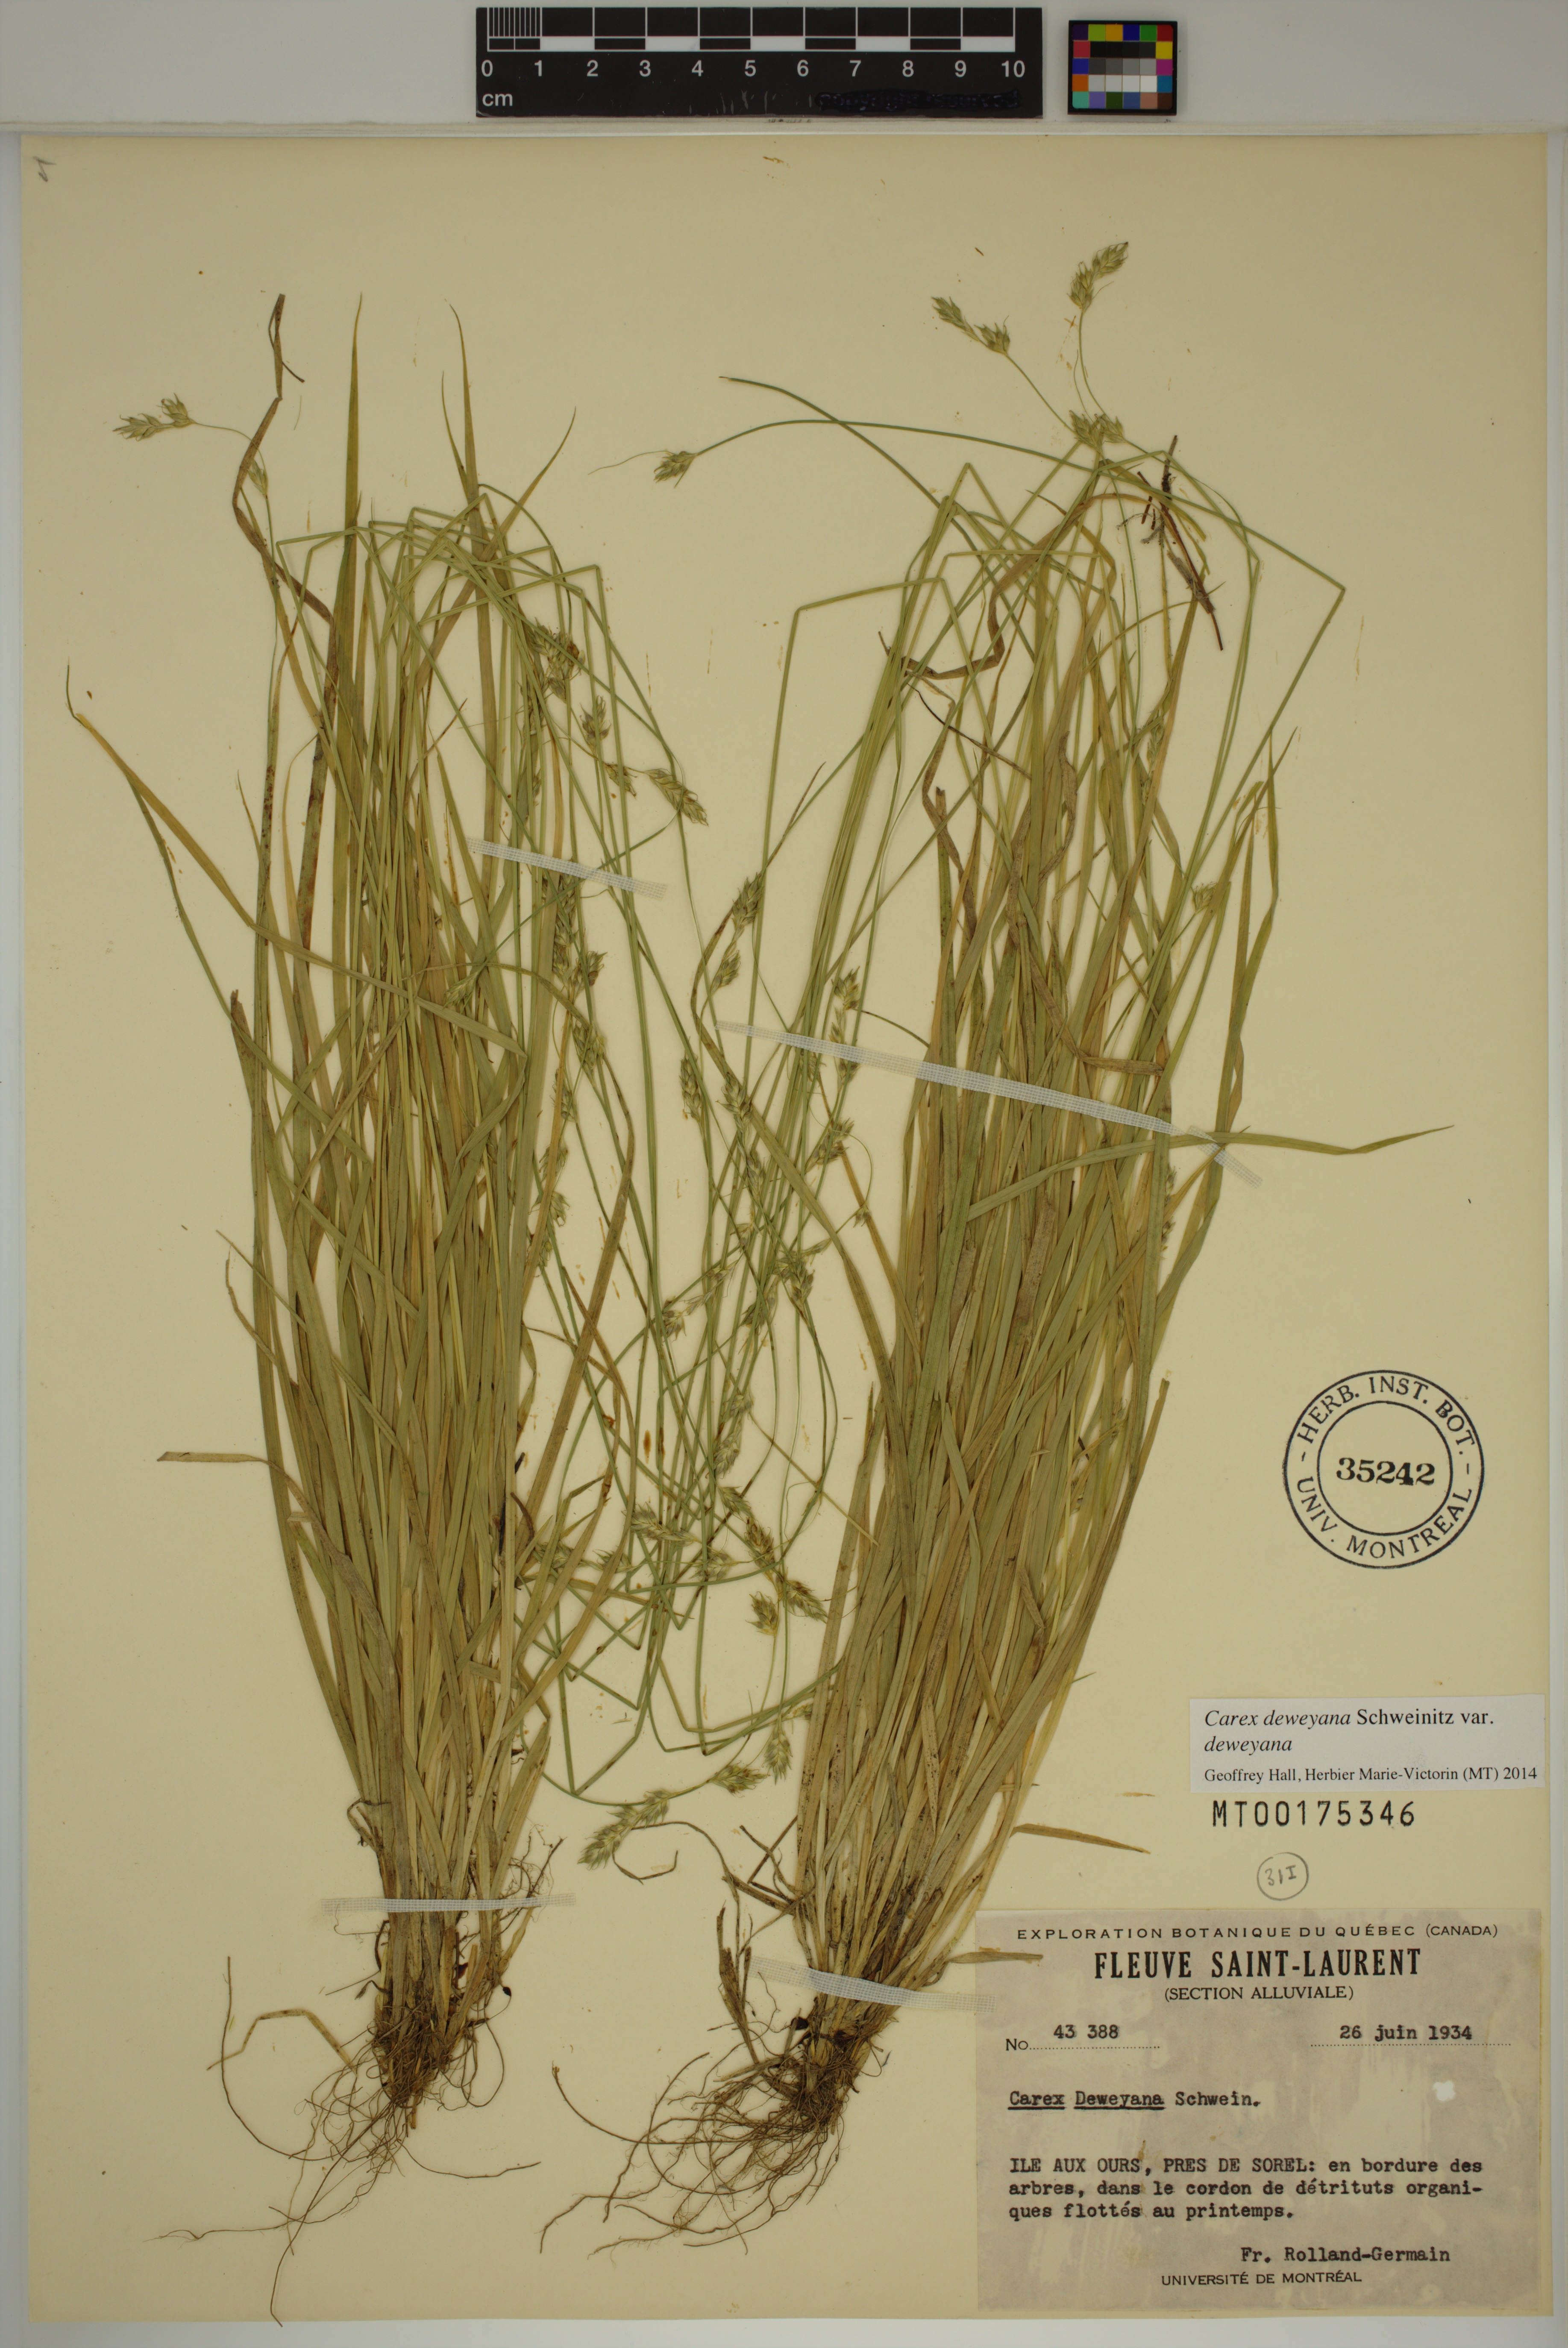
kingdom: Plantae
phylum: Tracheophyta
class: Liliopsida
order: Poales
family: Cyperaceae
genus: Carex
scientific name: Carex deweyana
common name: Dewey's sedge
